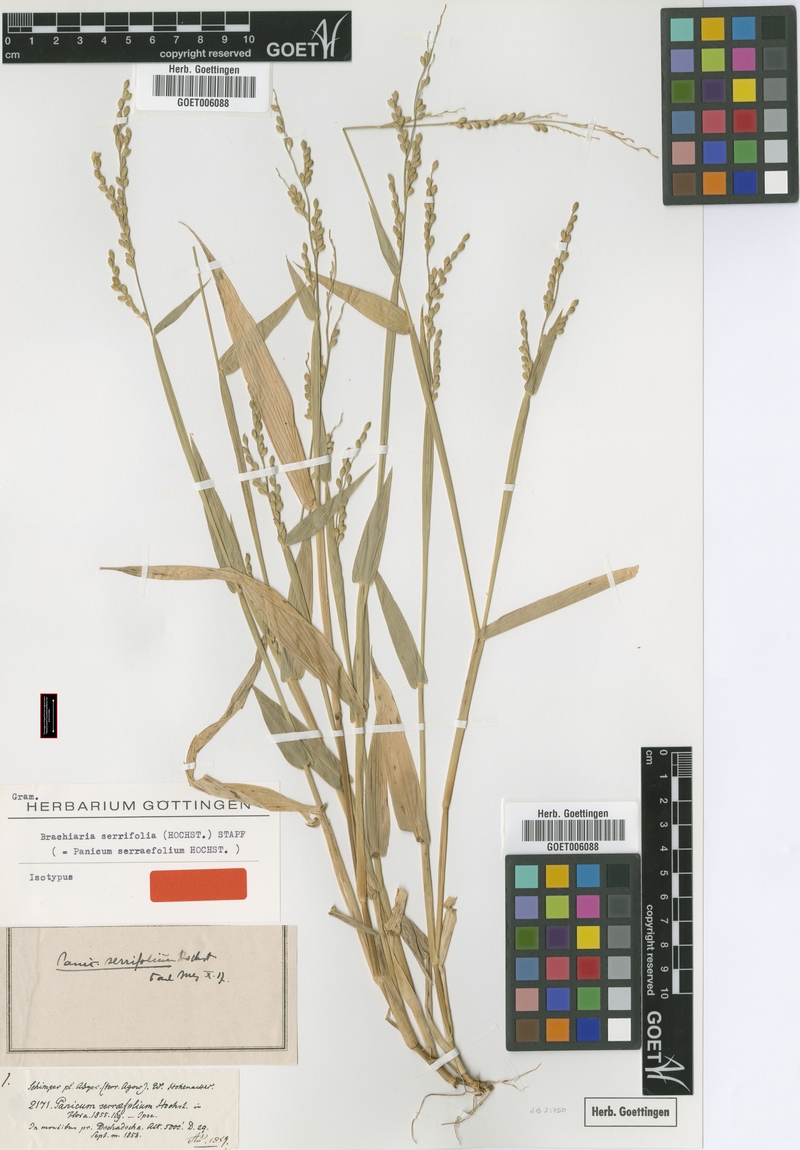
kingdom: Plantae
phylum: Tracheophyta
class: Liliopsida
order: Poales
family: Poaceae
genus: Urochloa
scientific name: Urochloa serrifolia
